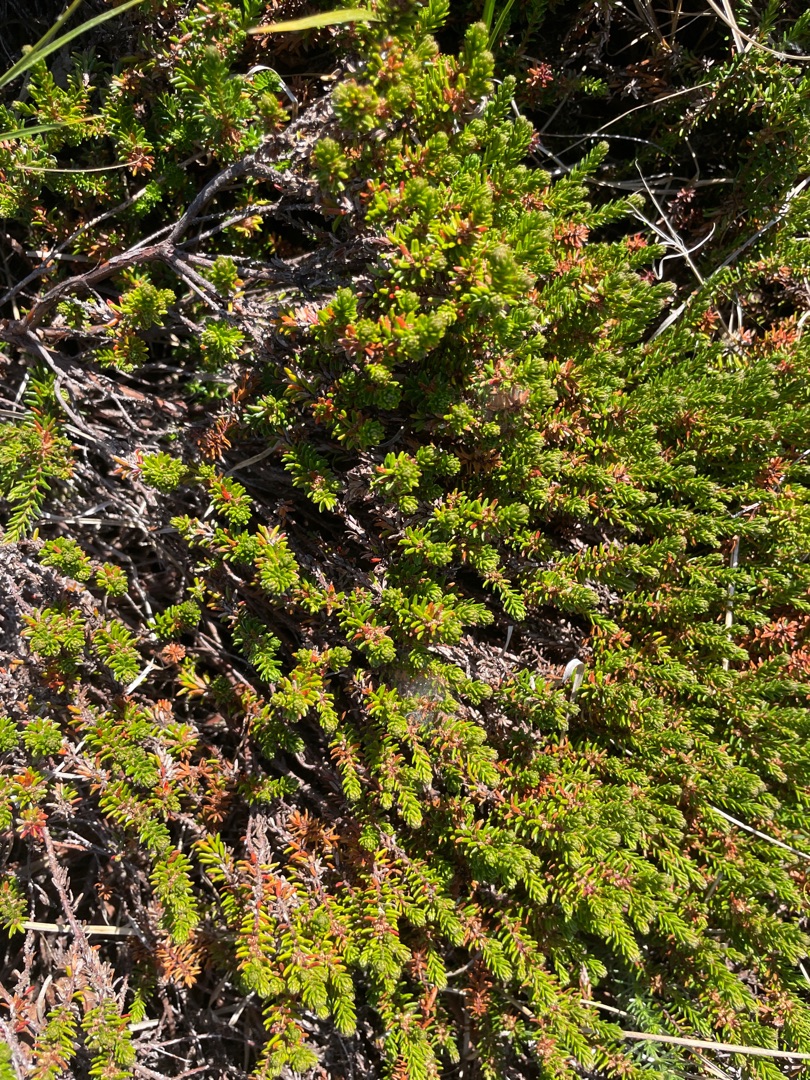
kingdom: Plantae
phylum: Tracheophyta
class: Magnoliopsida
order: Ericales
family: Ericaceae
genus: Empetrum
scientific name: Empetrum nigrum
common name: Revling
